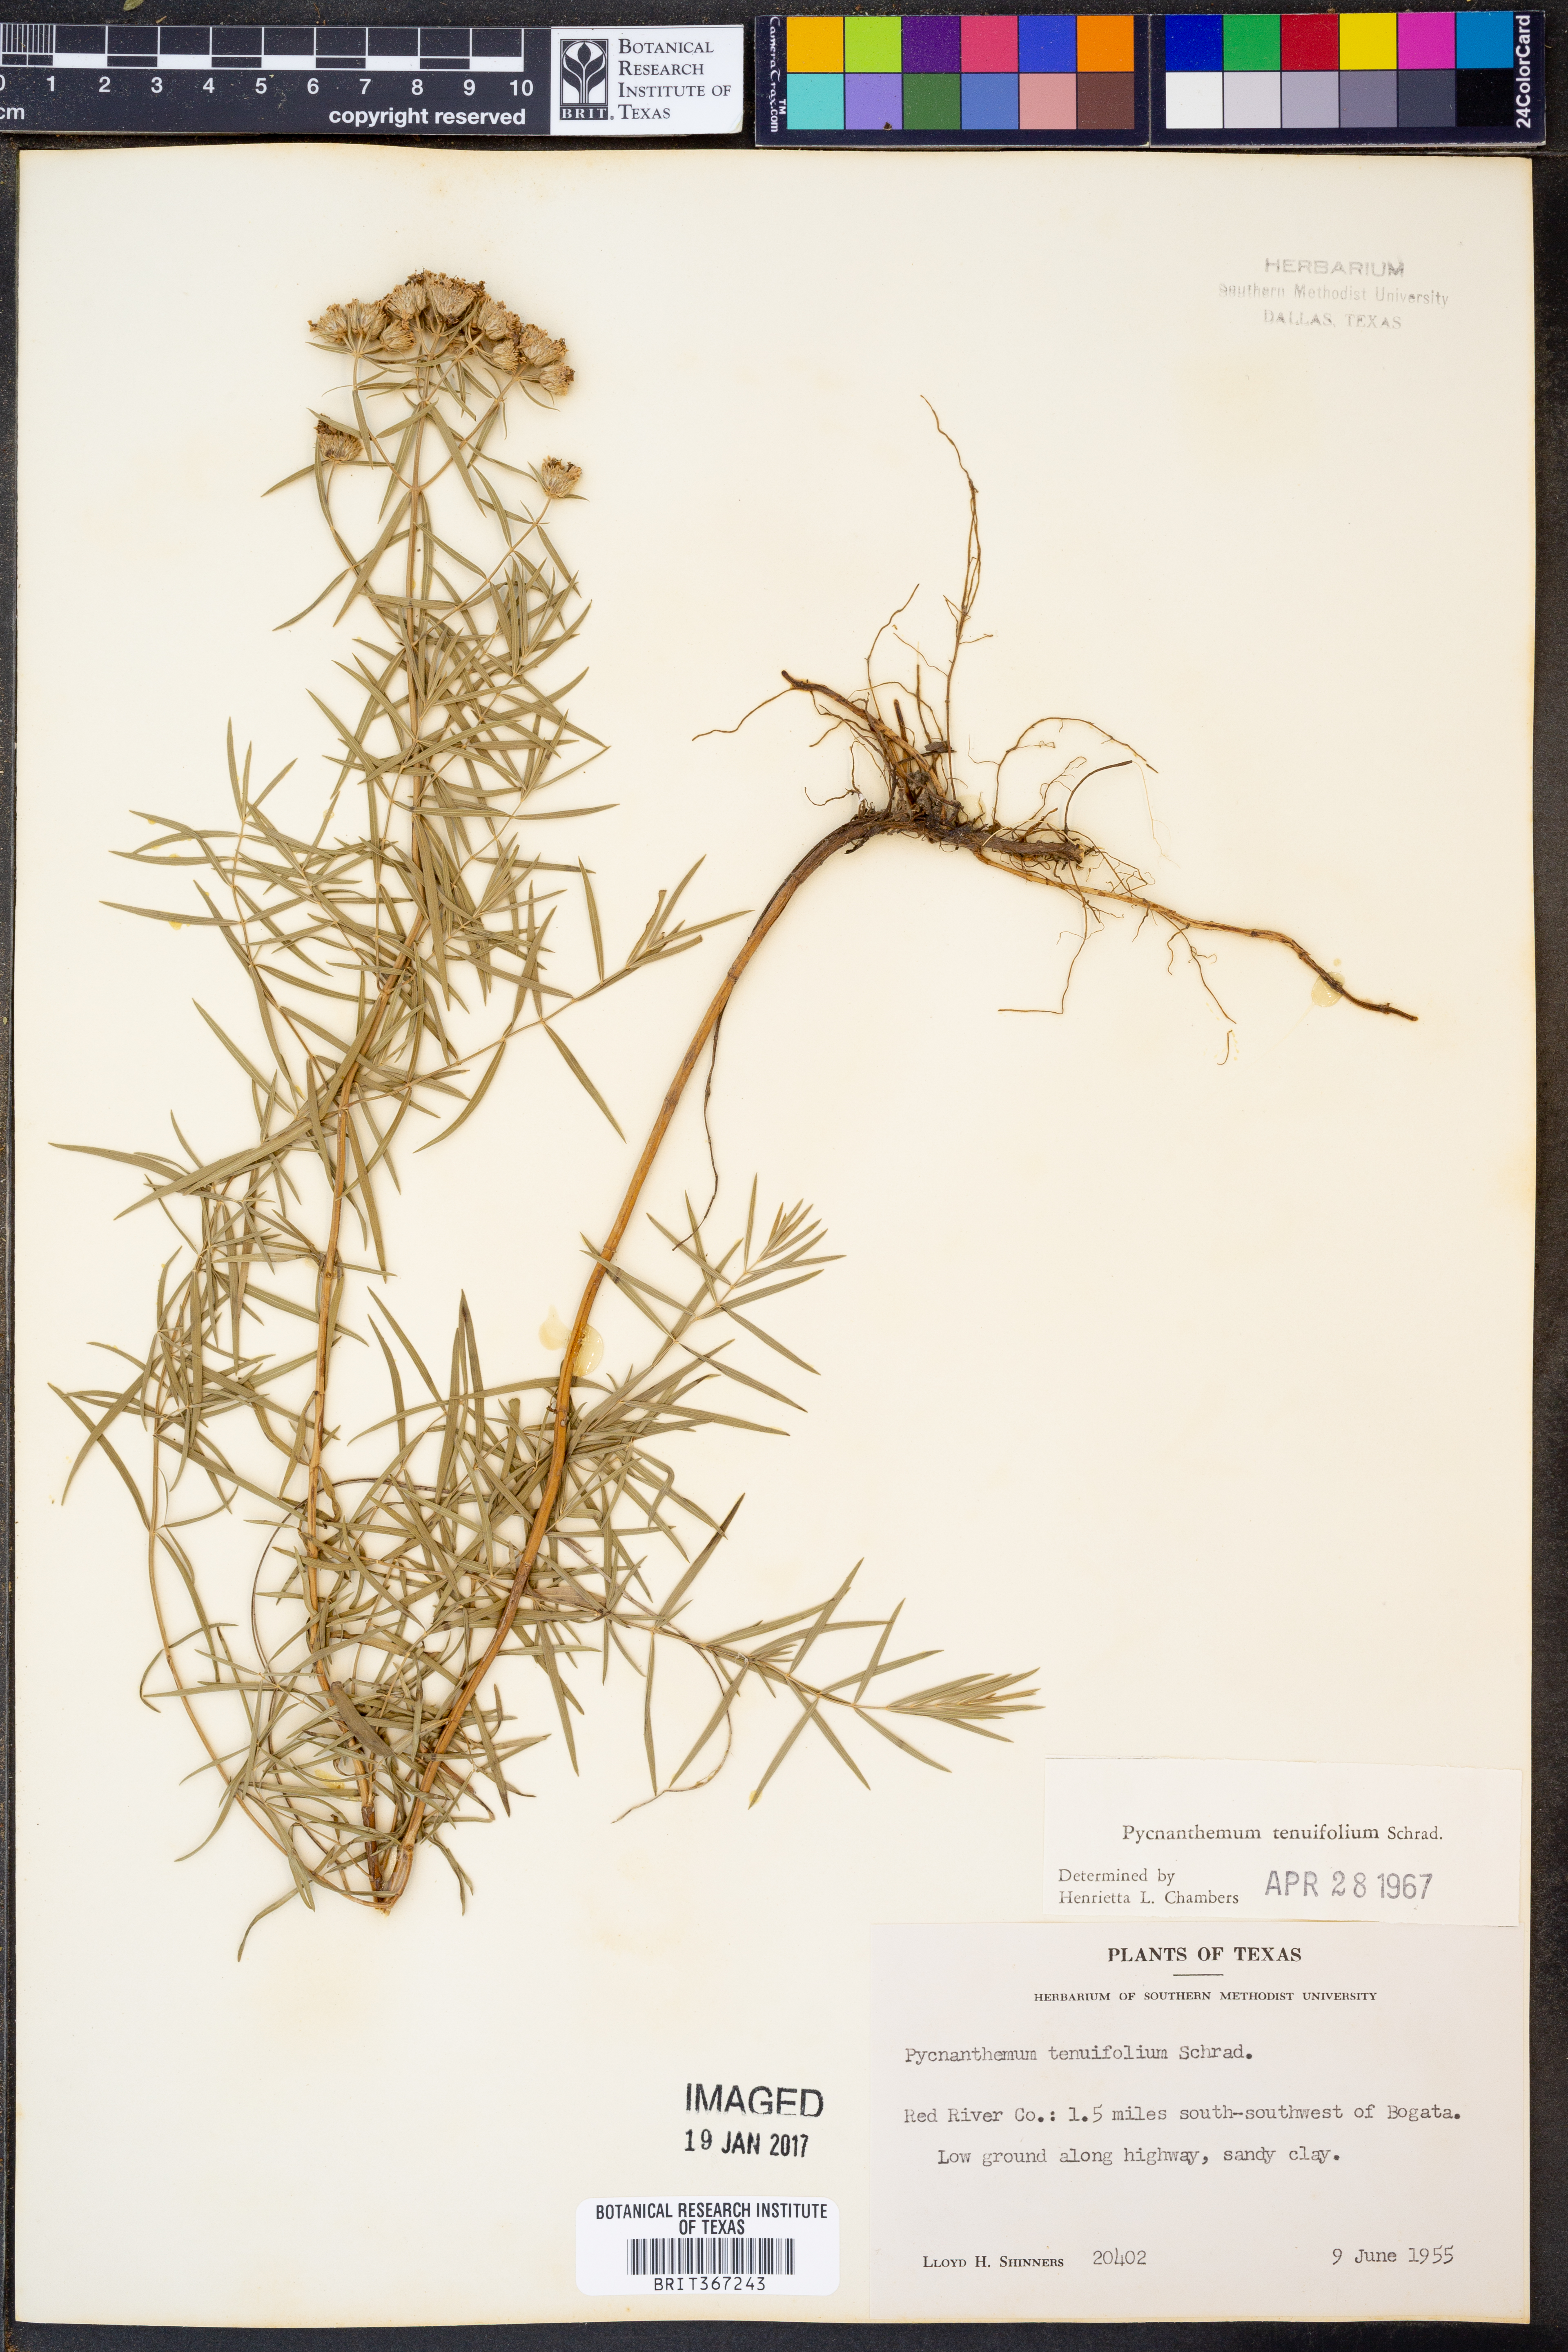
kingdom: Plantae
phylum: Tracheophyta
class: Magnoliopsida
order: Lamiales
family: Lamiaceae
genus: Pycnanthemum
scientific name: Pycnanthemum tenuifolium
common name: Narrow-leaf mountain-mint
